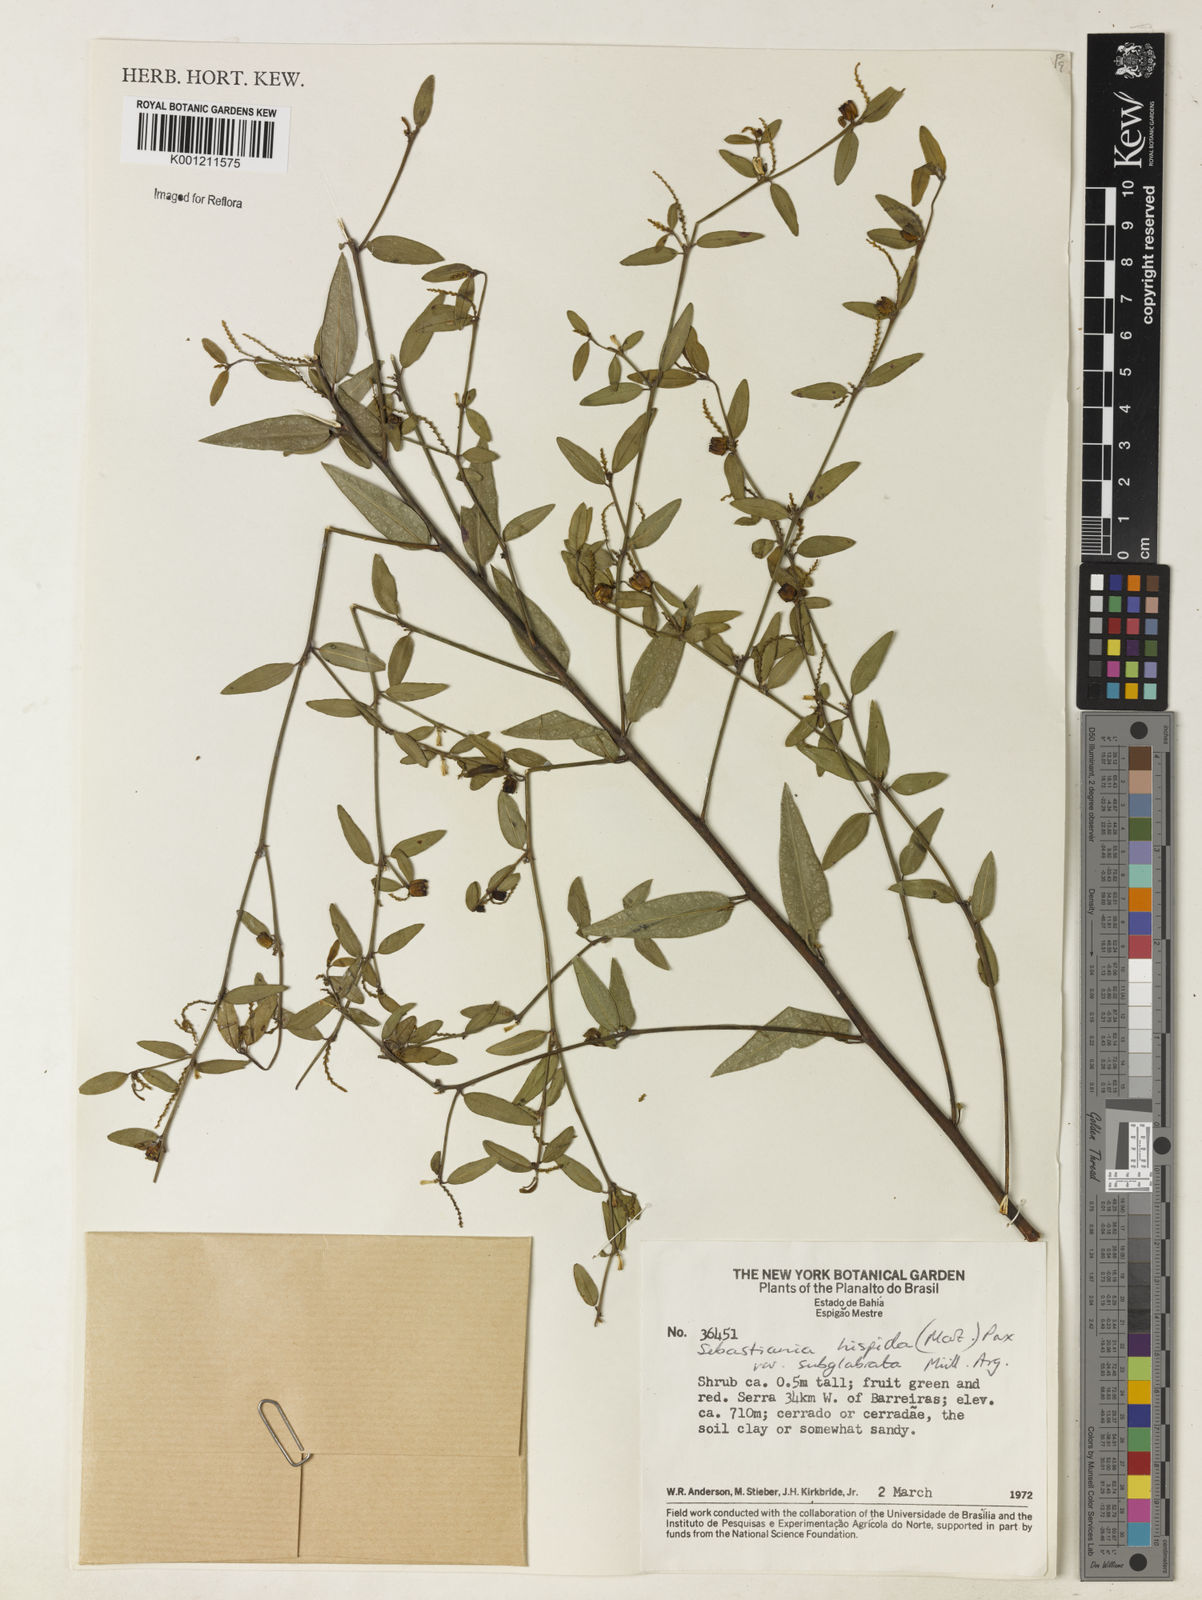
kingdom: Plantae
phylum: Tracheophyta
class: Magnoliopsida
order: Malpighiales
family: Euphorbiaceae
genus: Microstachys
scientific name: Microstachys hispida
